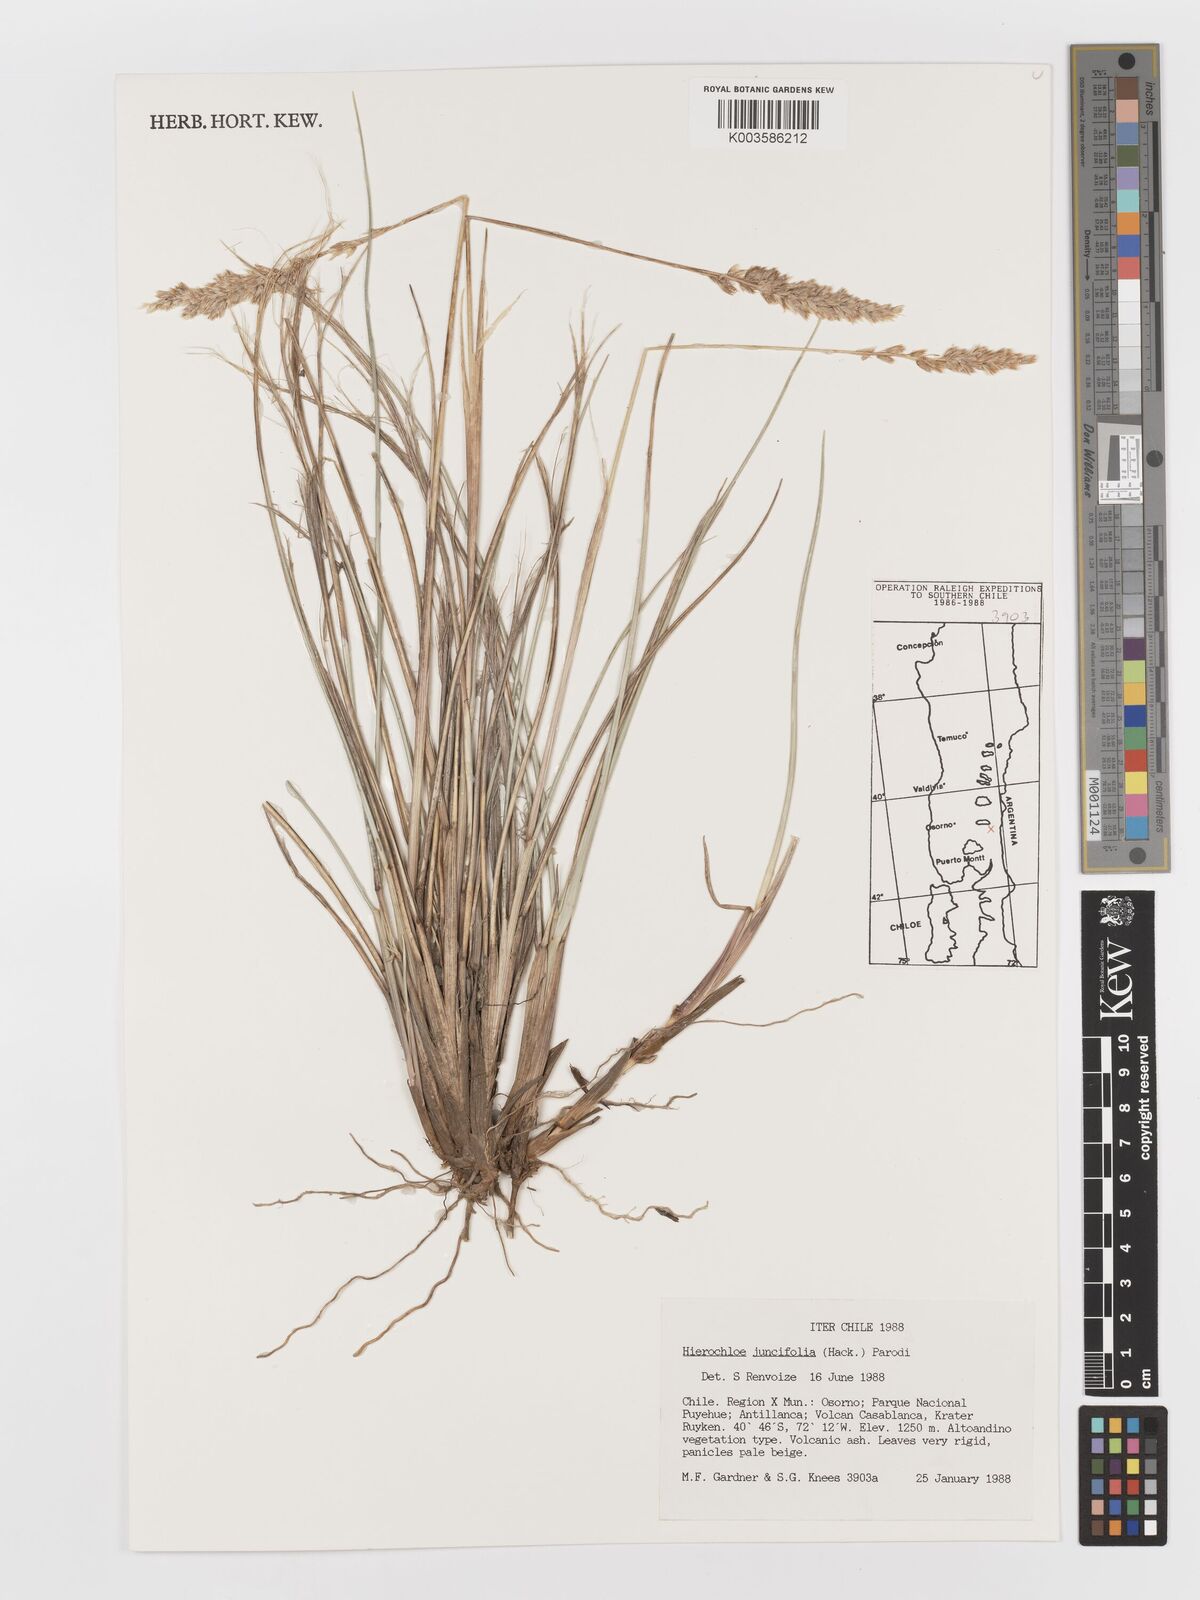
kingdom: Plantae
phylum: Tracheophyta
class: Liliopsida
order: Poales
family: Poaceae
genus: Anthoxanthum
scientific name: Anthoxanthum juncifolium
